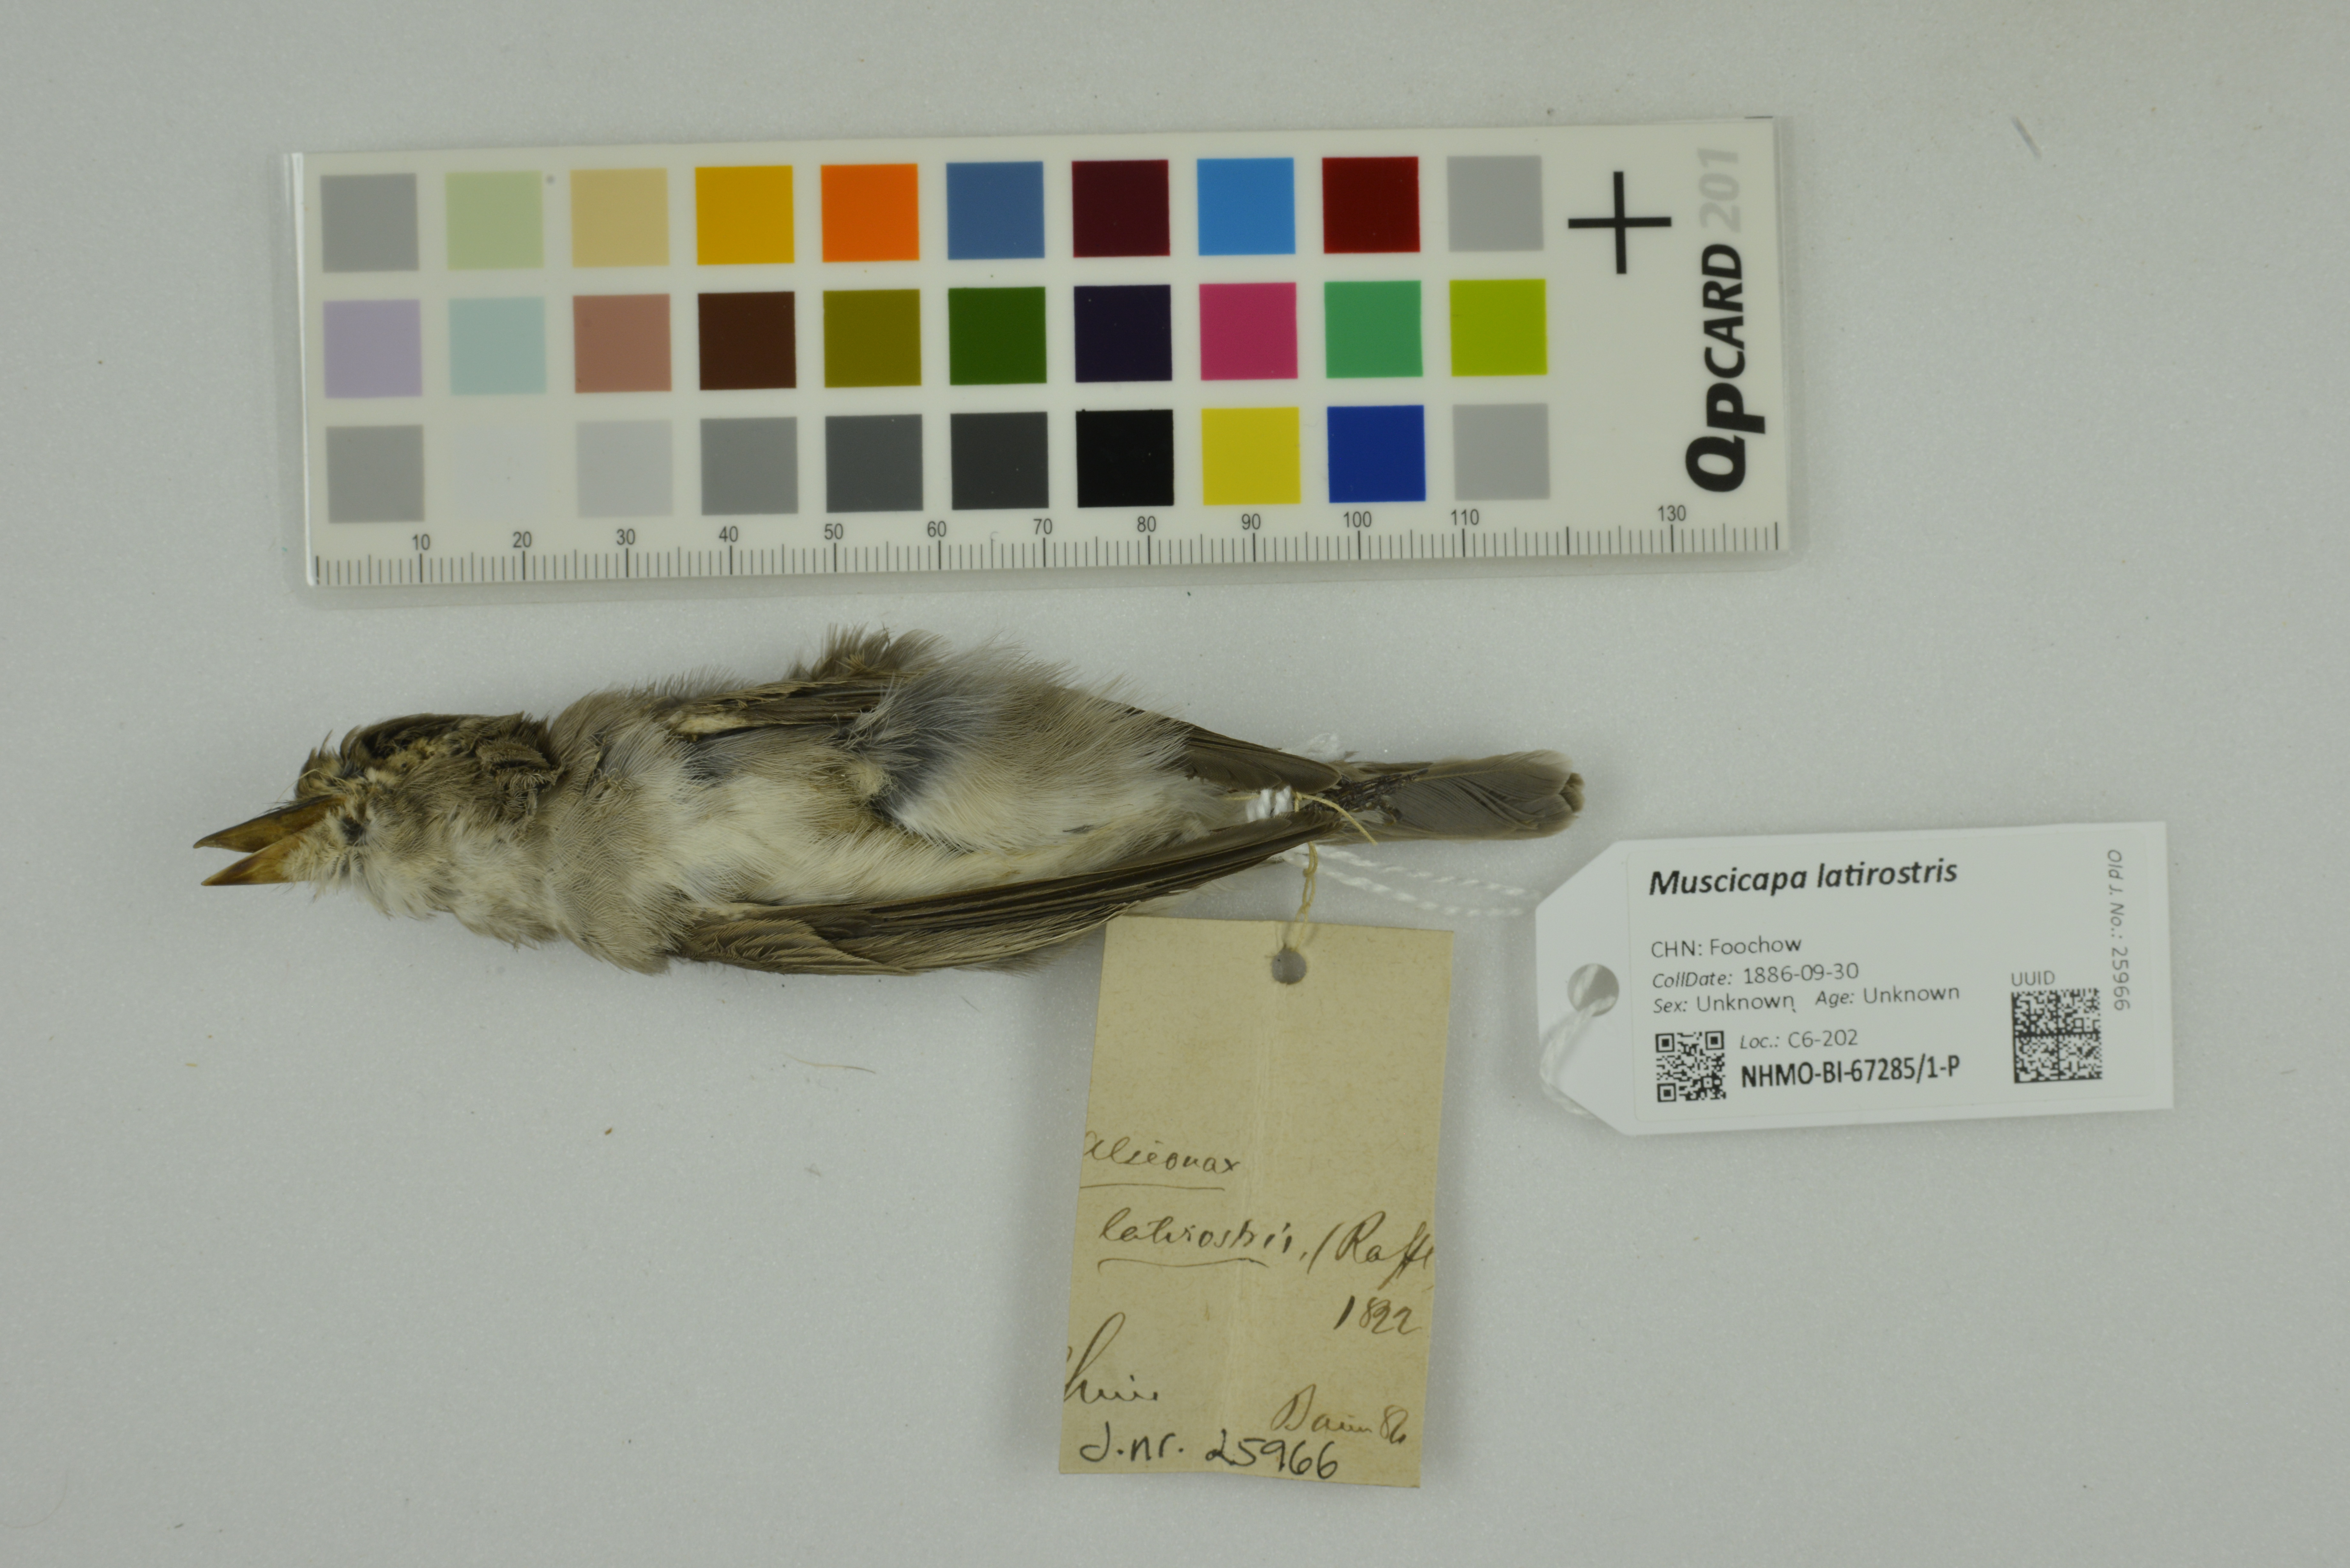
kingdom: Animalia
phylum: Chordata
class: Aves
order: Passeriformes
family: Muscicapidae
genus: Muscicapa
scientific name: Muscicapa latirostris
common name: Asian brown flycatcher
